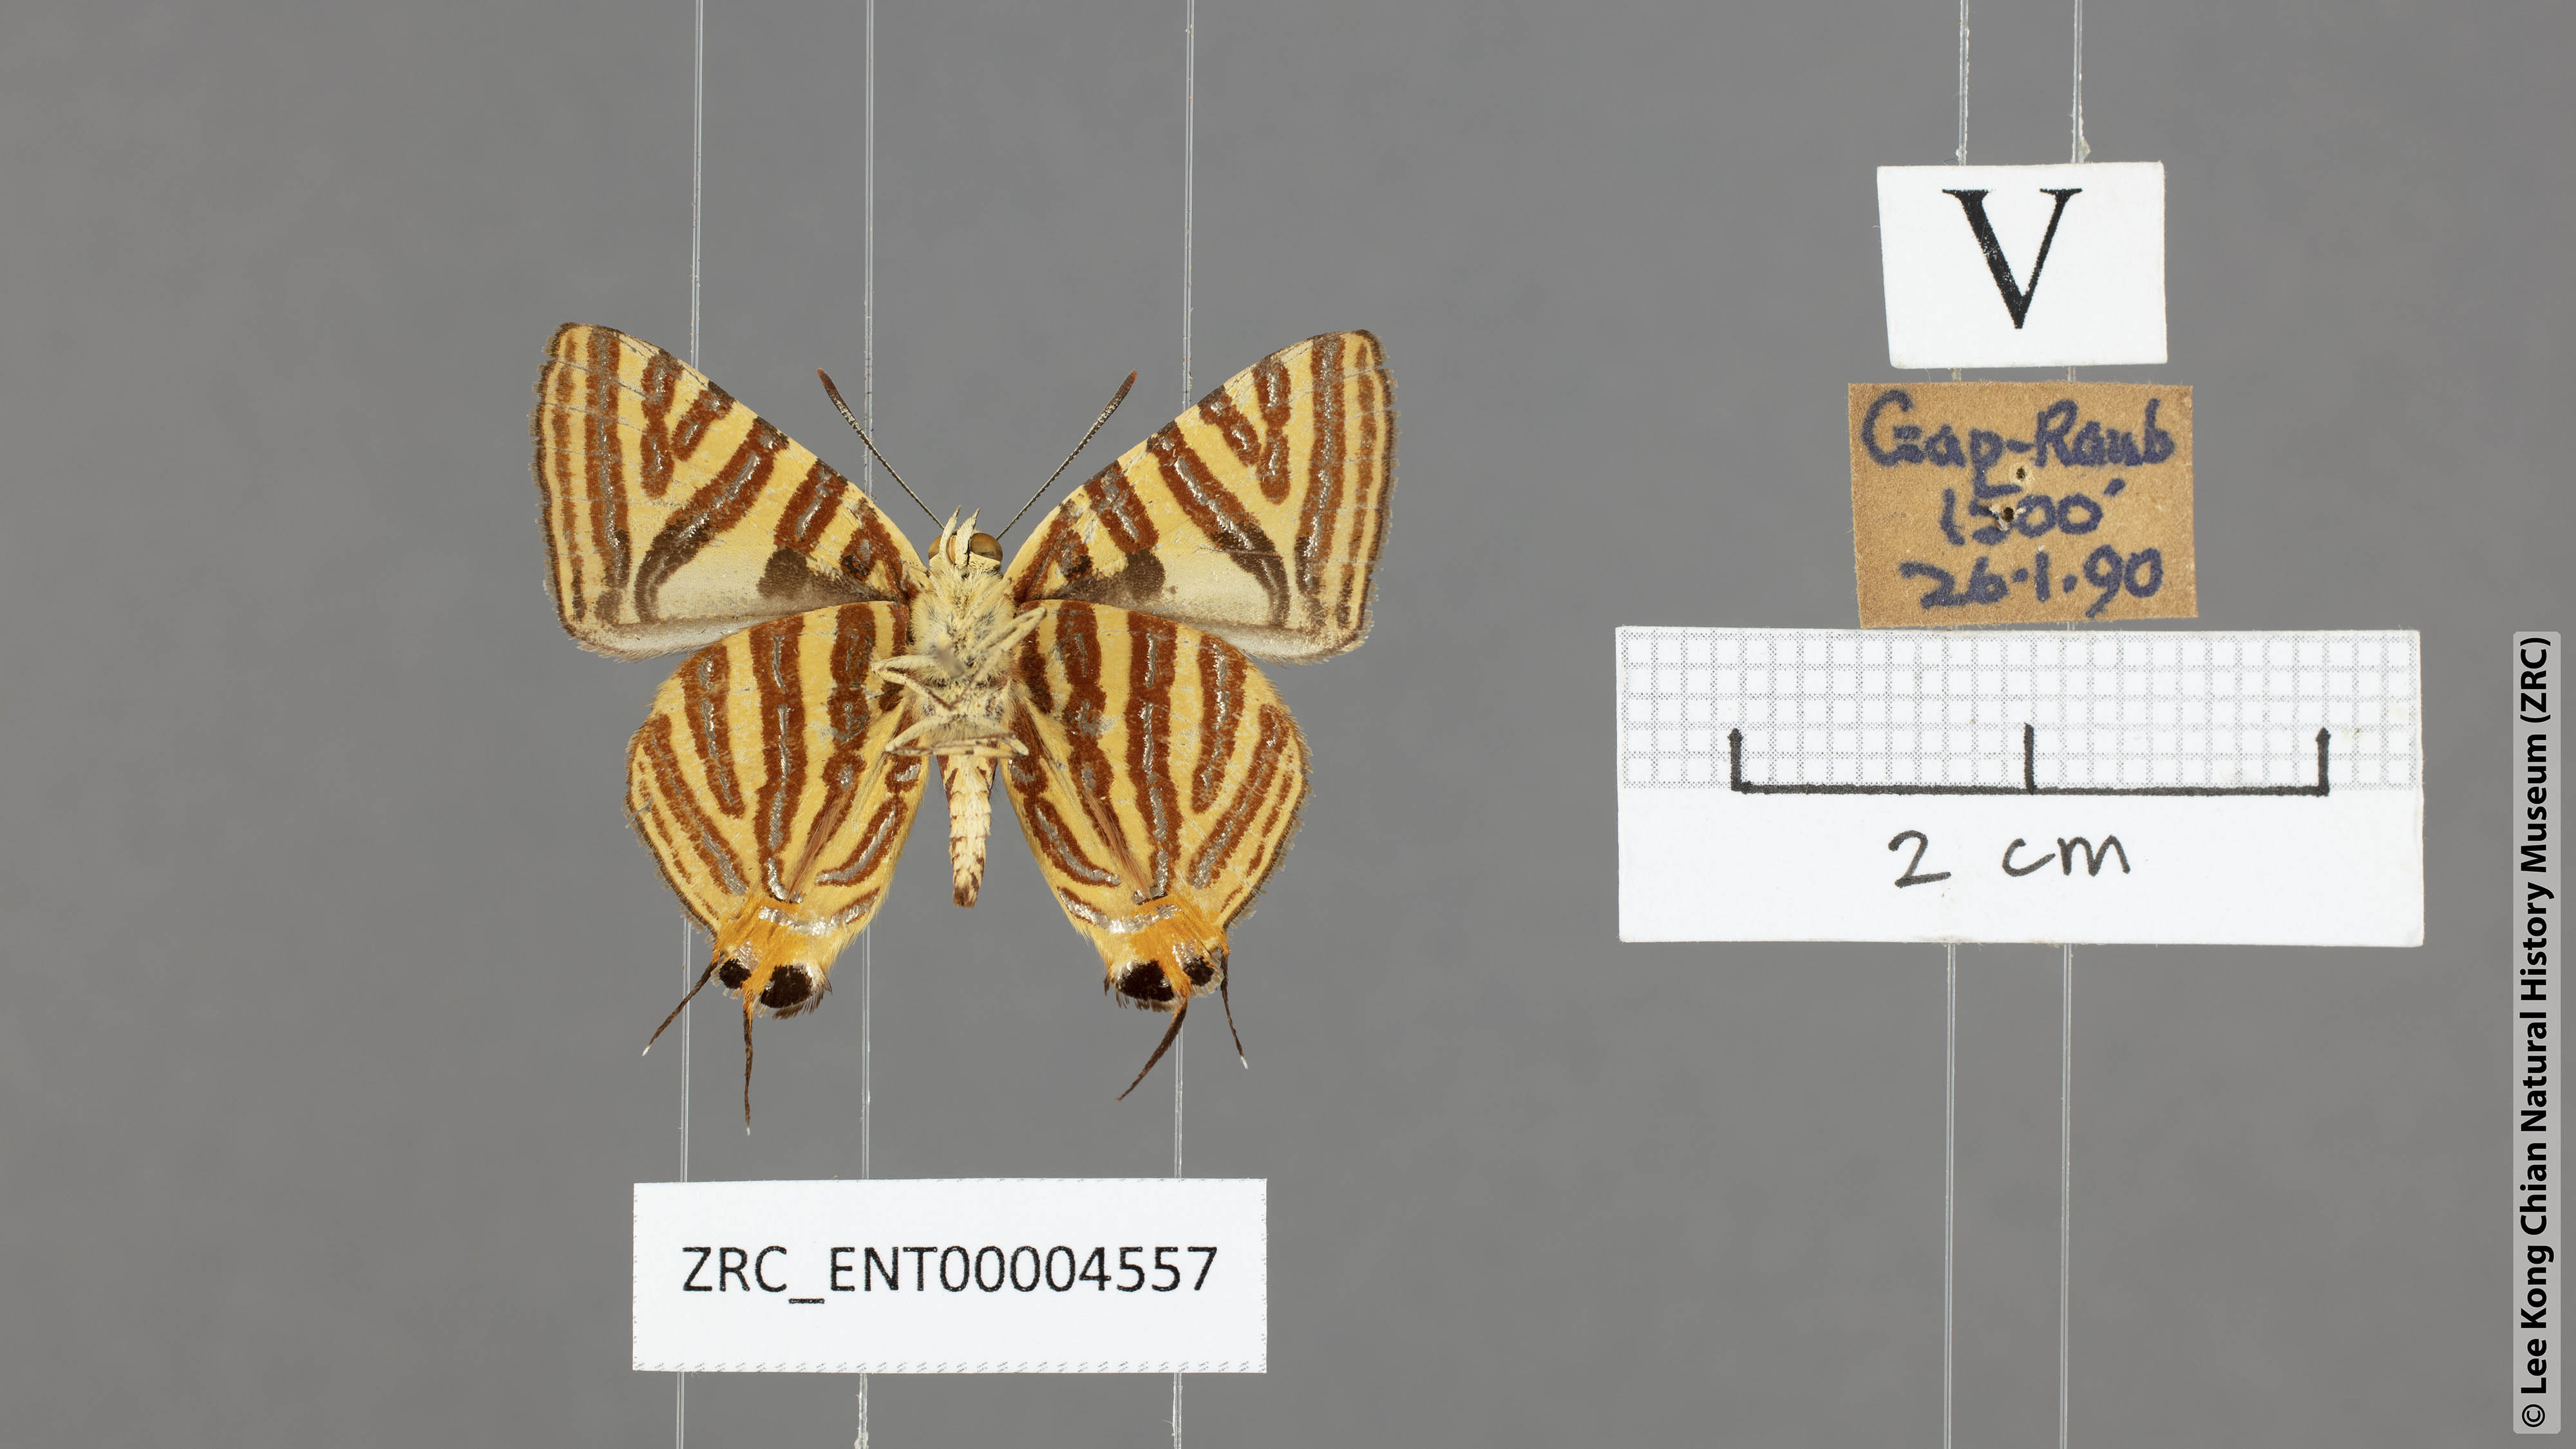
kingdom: Animalia
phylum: Arthropoda
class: Insecta
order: Lepidoptera
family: Lycaenidae
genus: Spindasis
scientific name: Spindasis lohita
